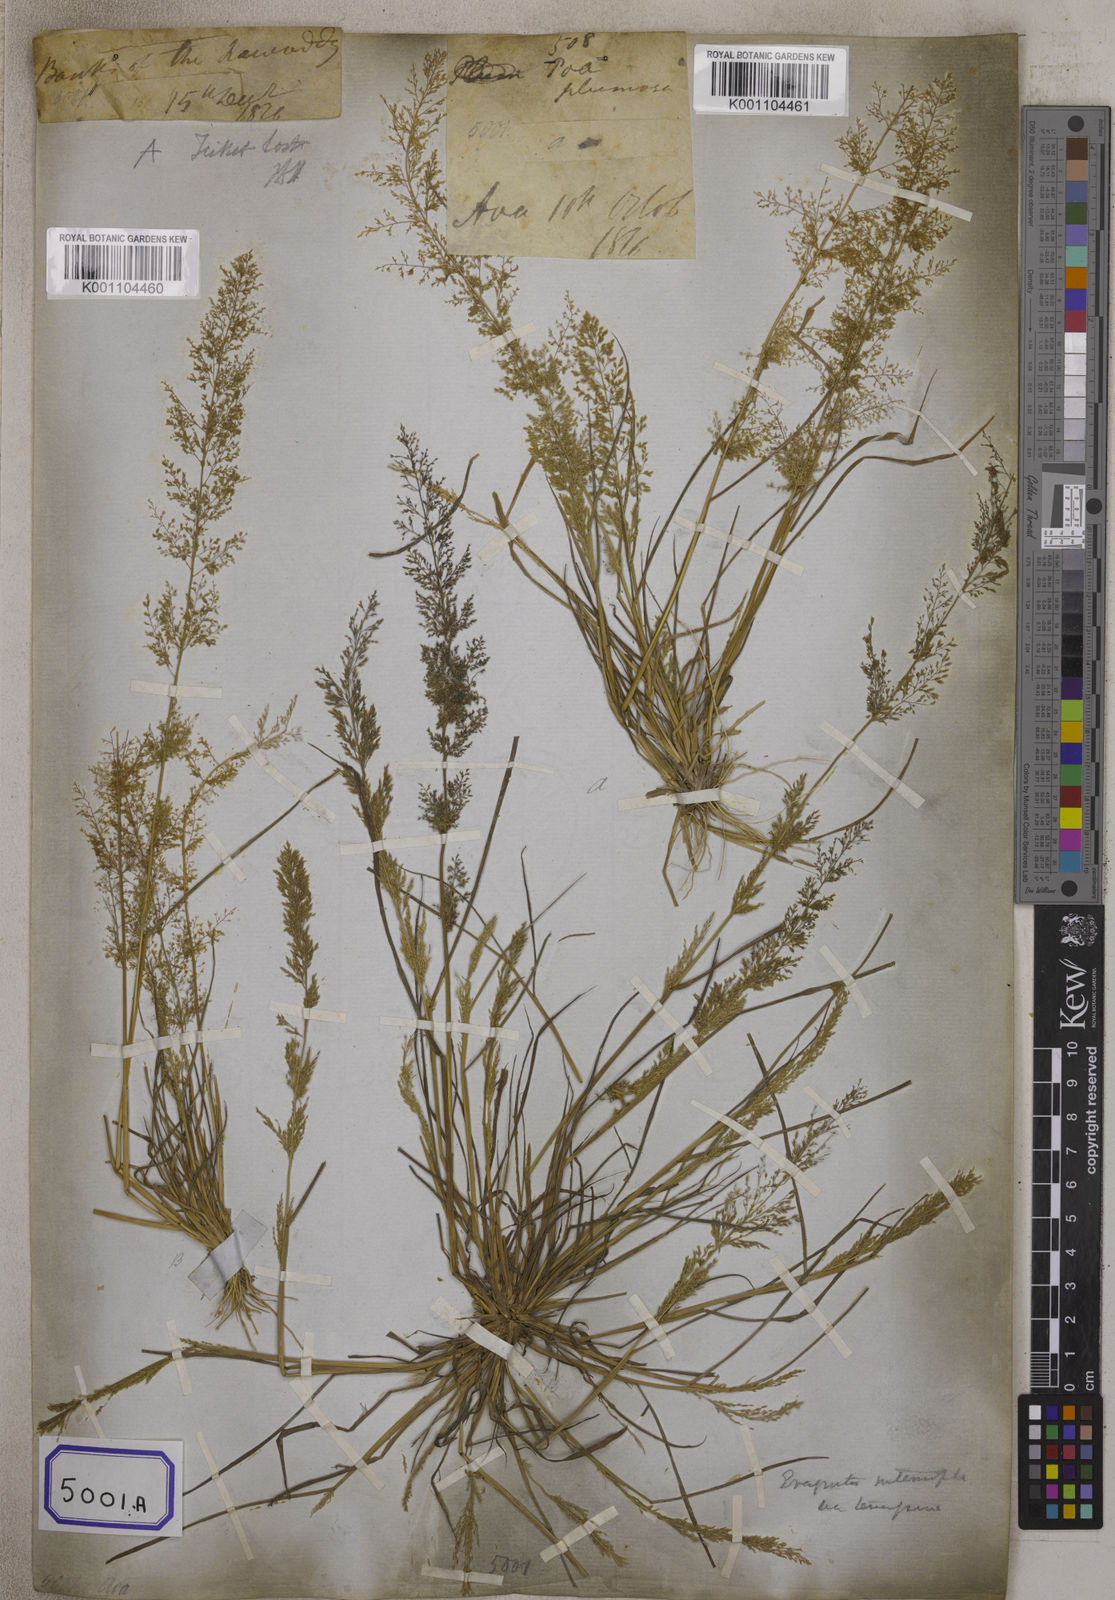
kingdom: Plantae
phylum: Tracheophyta
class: Liliopsida
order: Poales
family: Poaceae
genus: Eragrostis
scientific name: Eragrostis
